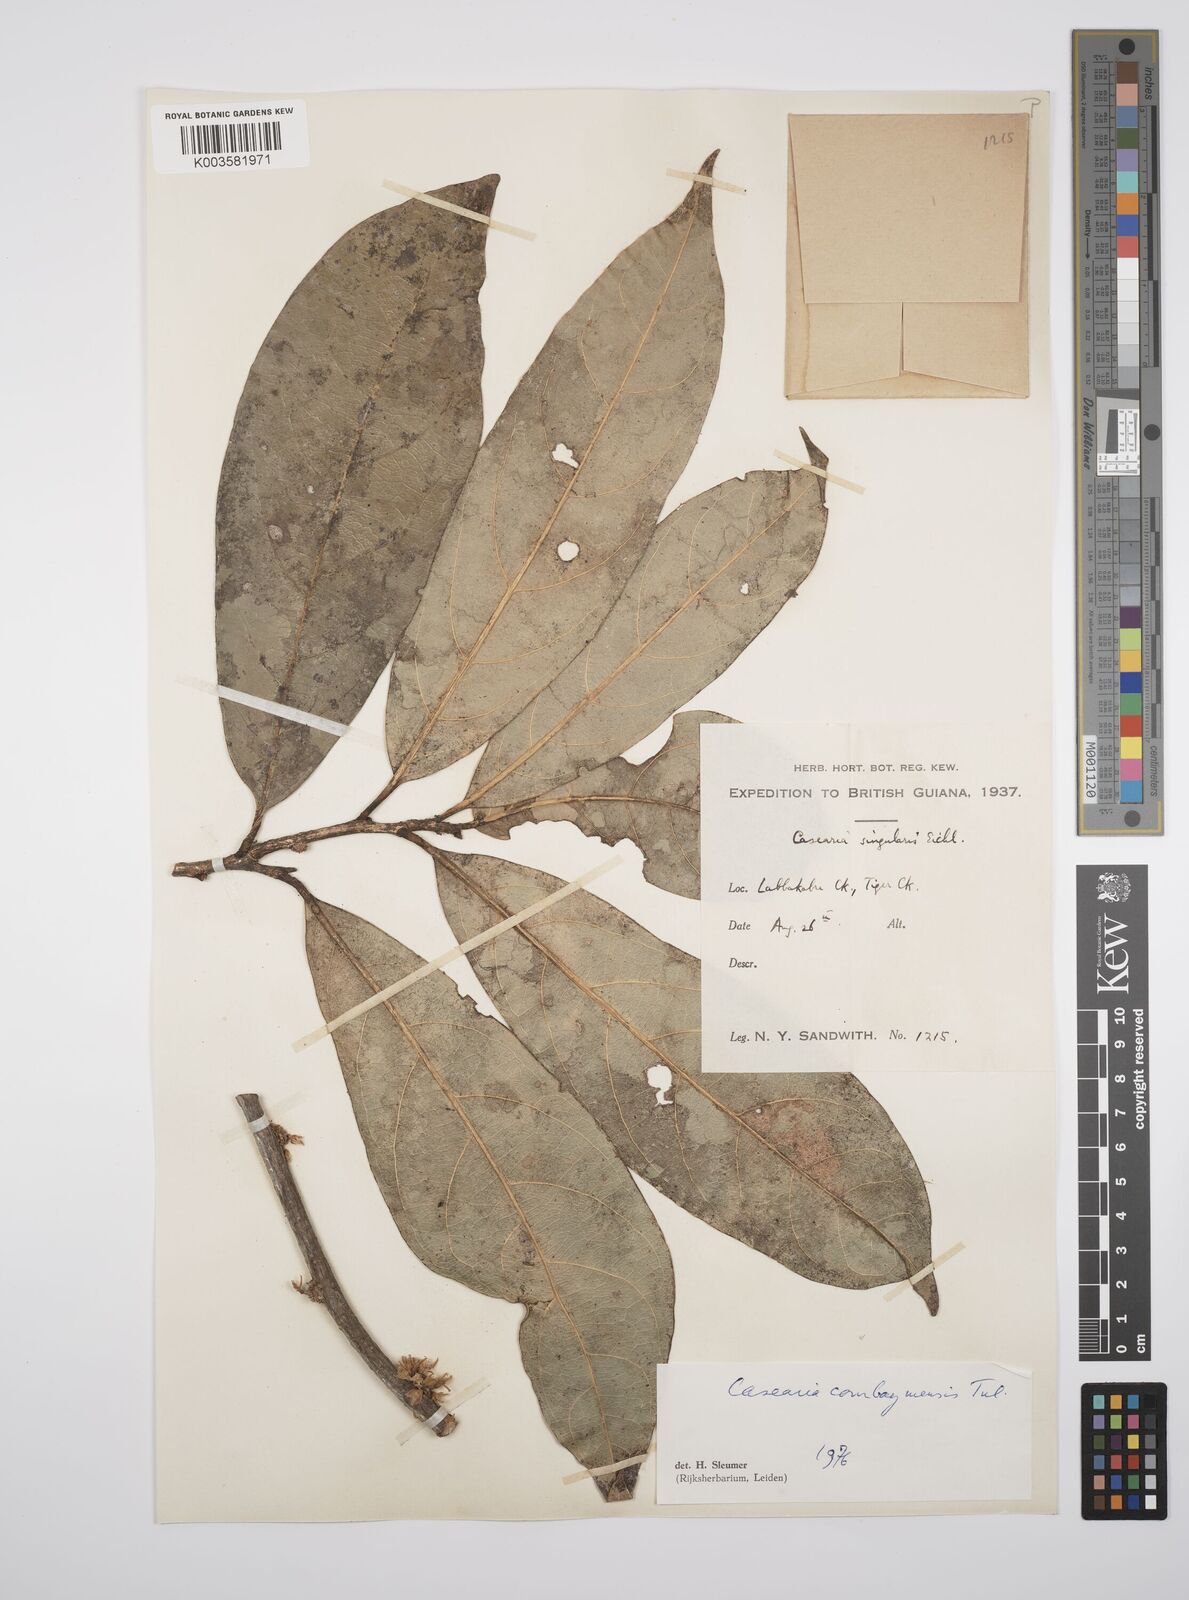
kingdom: Plantae
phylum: Tracheophyta
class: Magnoliopsida
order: Malpighiales
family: Salicaceae
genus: Casearia
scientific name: Casearia combaymensis
